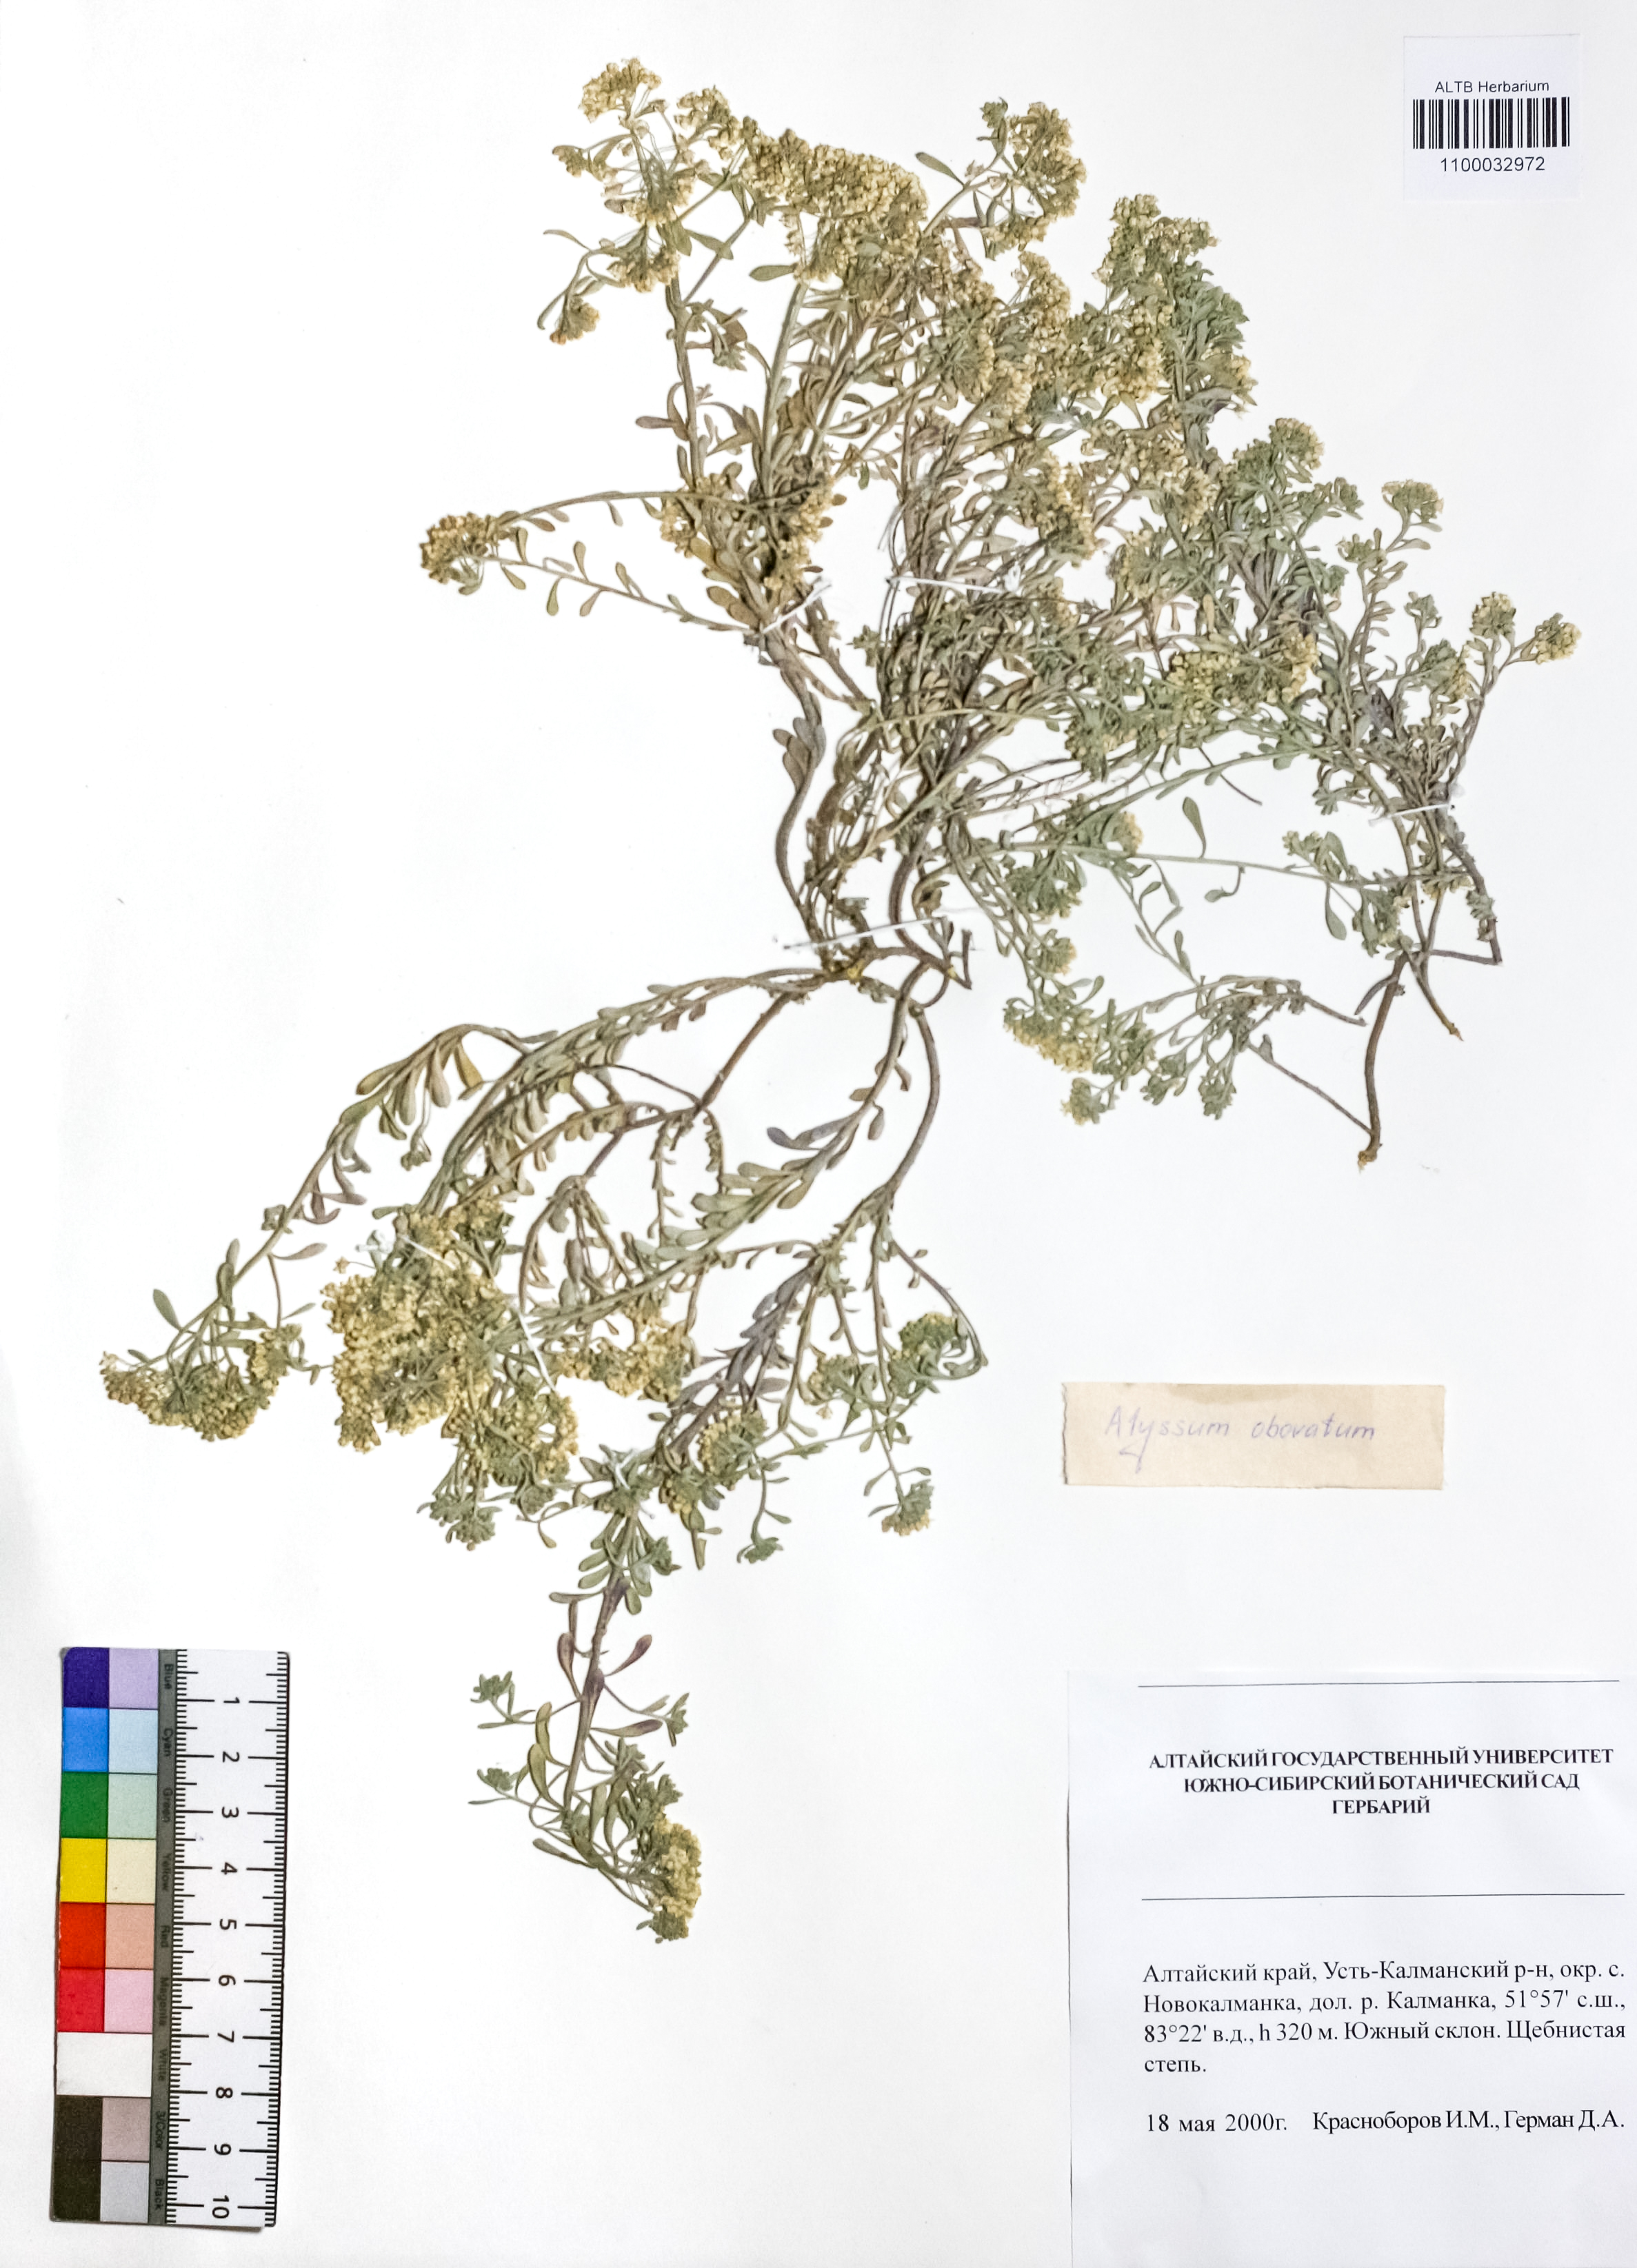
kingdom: Plantae
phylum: Tracheophyta
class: Magnoliopsida
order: Brassicales
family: Brassicaceae
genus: Odontarrhena
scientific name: Odontarrhena obovata
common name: American alyssum
